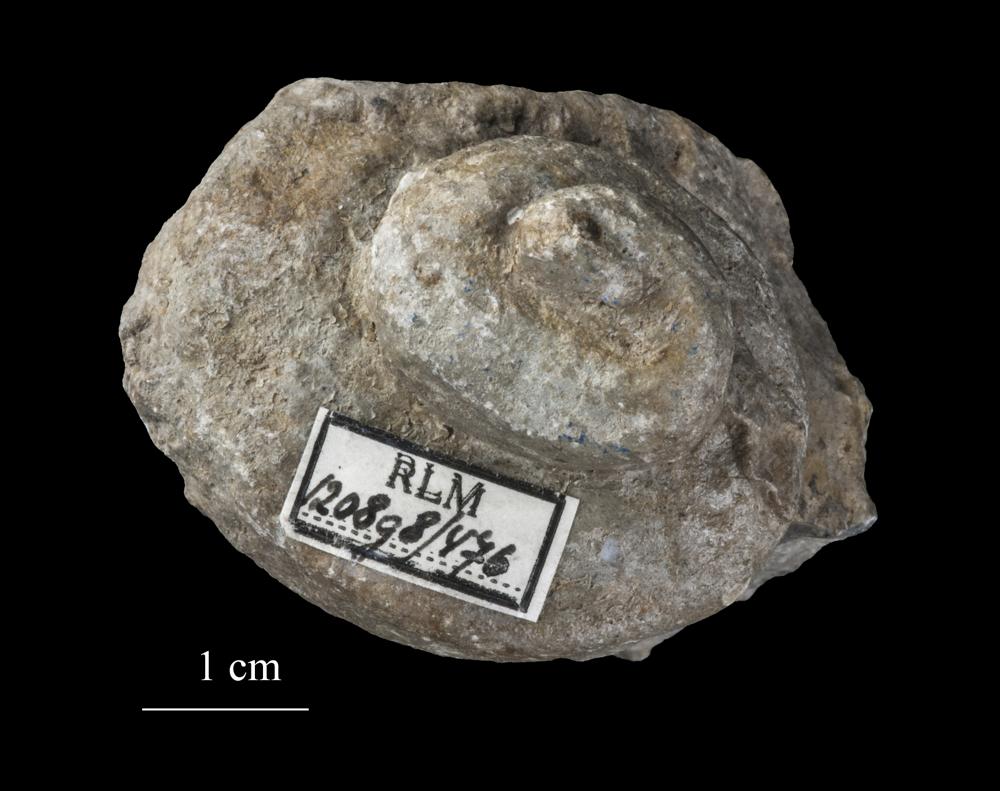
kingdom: Animalia
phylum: Mollusca
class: Gastropoda
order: Pleurotomariida
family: Pleurotomariidae
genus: Pleurotomaria
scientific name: Pleurotomaria
